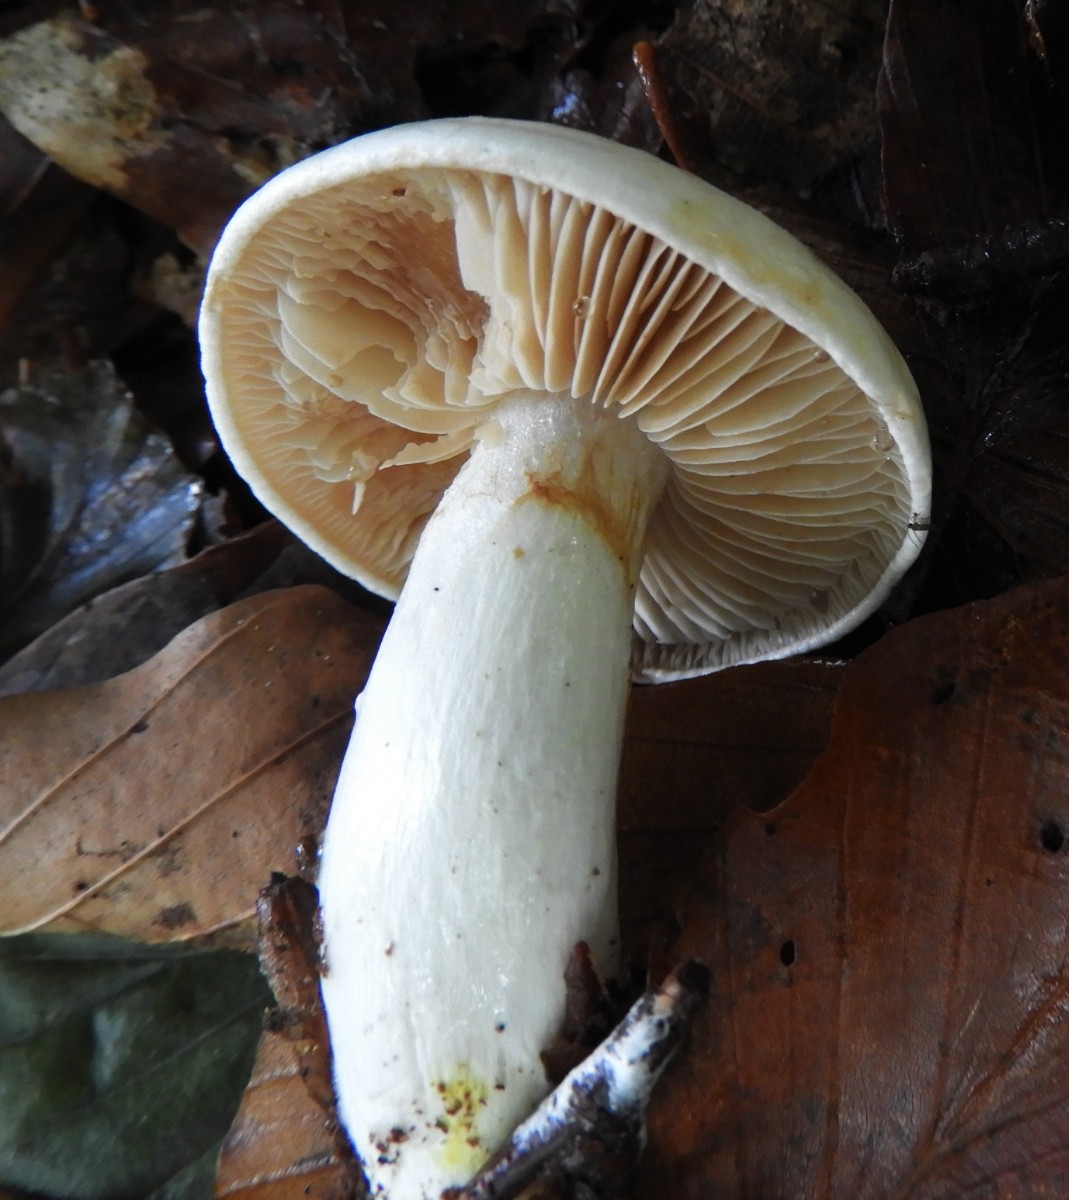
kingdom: Fungi
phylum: Basidiomycota
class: Agaricomycetes
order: Agaricales
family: Cortinariaceae
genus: Thaxterogaster
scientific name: Thaxterogaster barbatus
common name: elfenbens-slørhat
